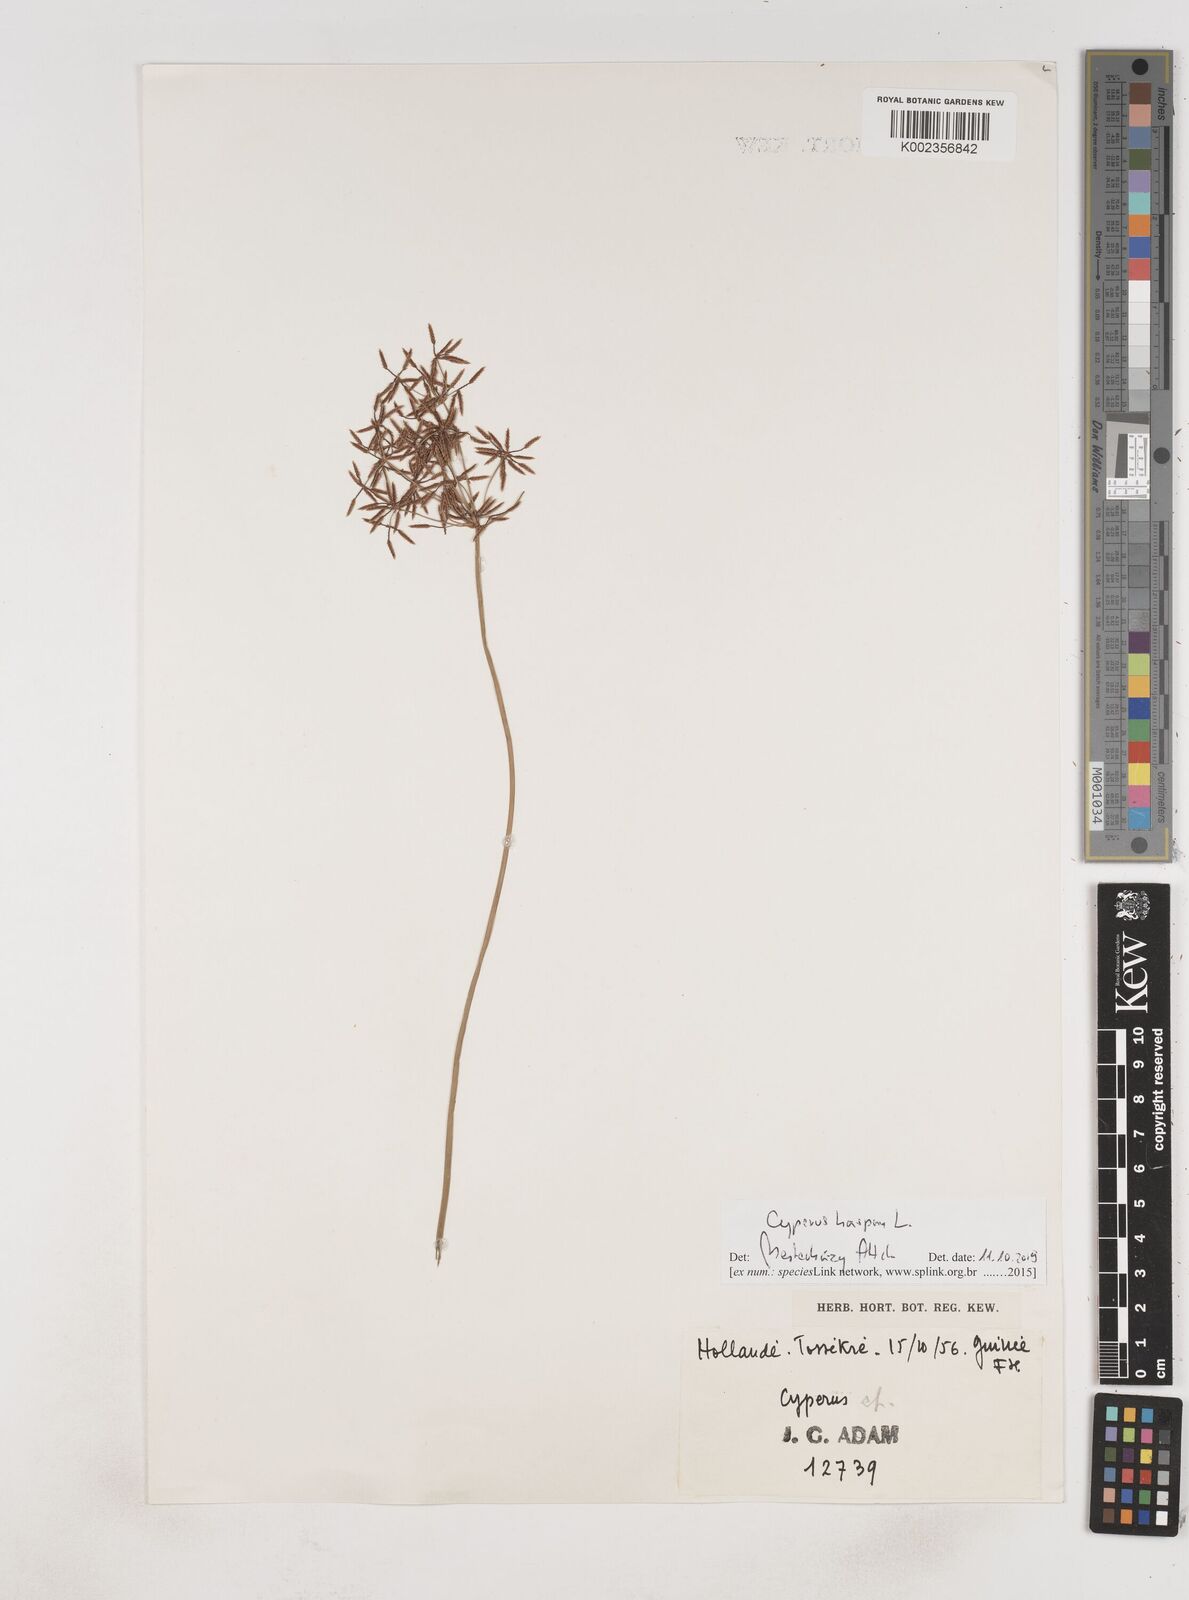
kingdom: Plantae
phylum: Tracheophyta
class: Liliopsida
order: Poales
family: Cyperaceae
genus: Cyperus
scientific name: Cyperus haspan
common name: Haspan flatsedge
